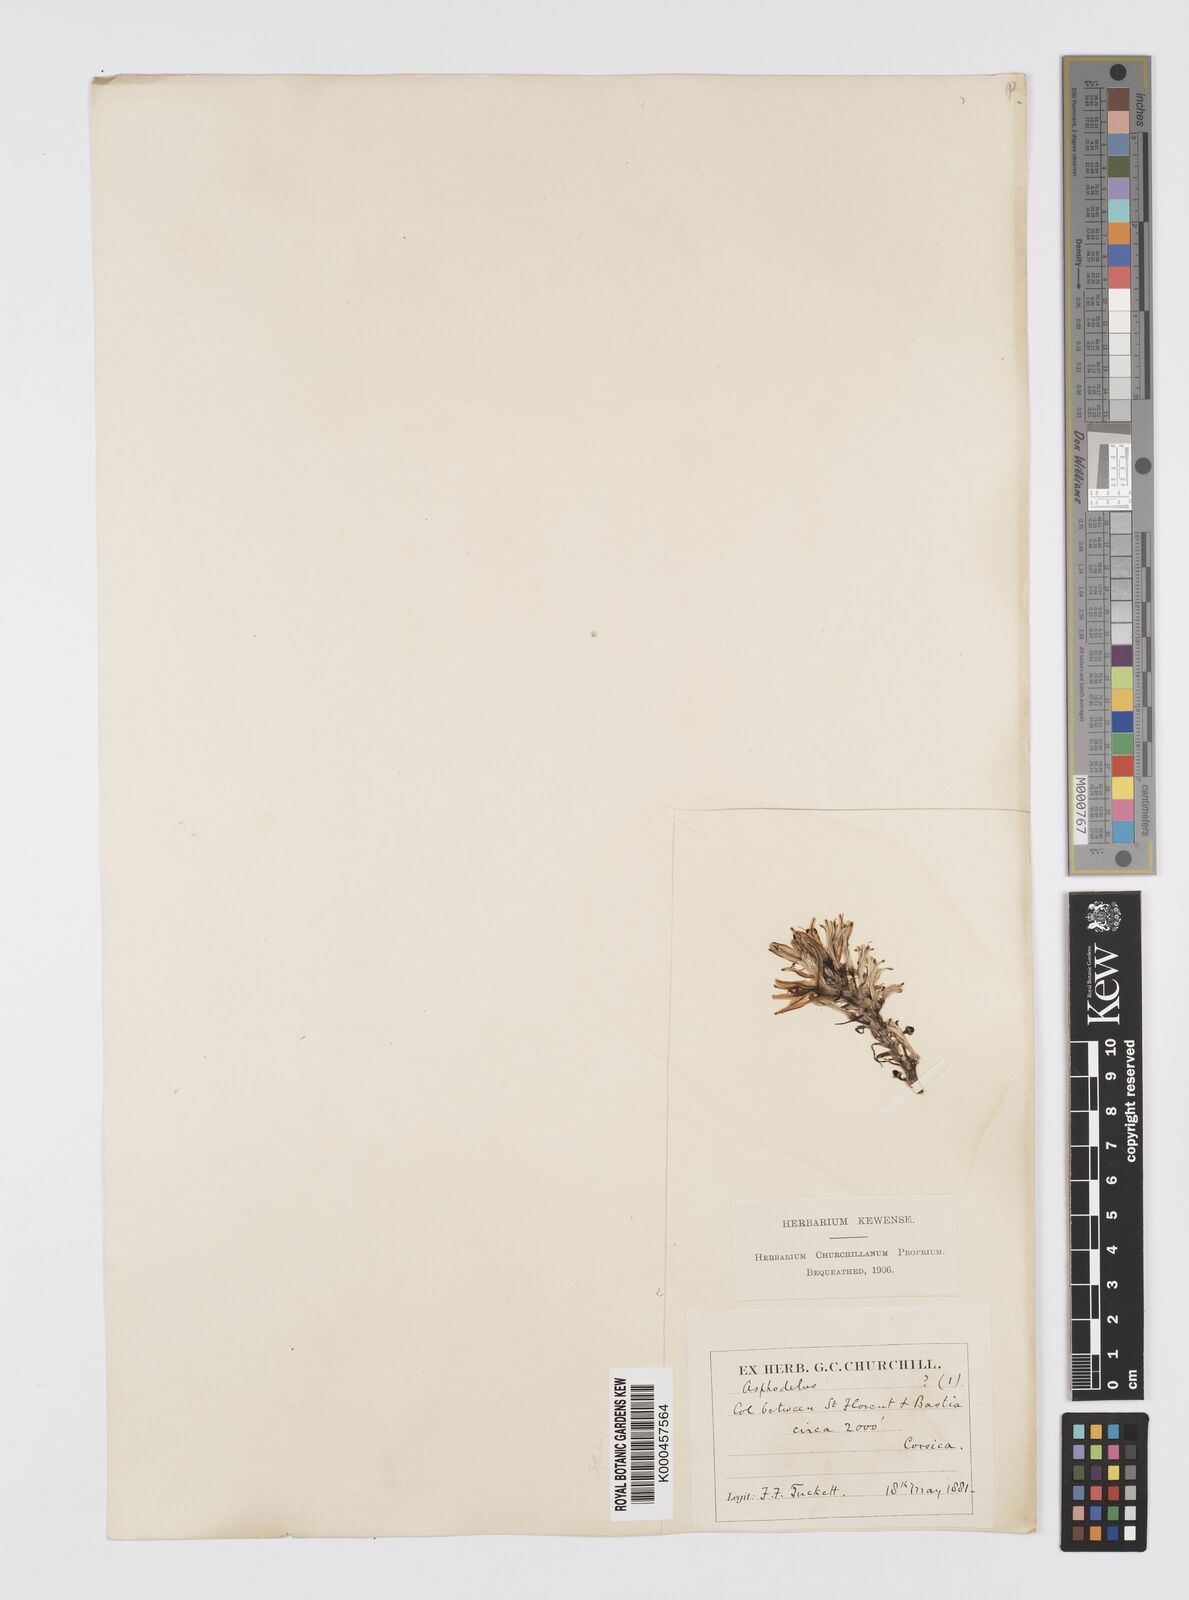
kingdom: Plantae
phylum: Tracheophyta
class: Liliopsida
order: Asparagales
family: Asphodelaceae
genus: Asphodelus
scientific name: Asphodelus aestivus
